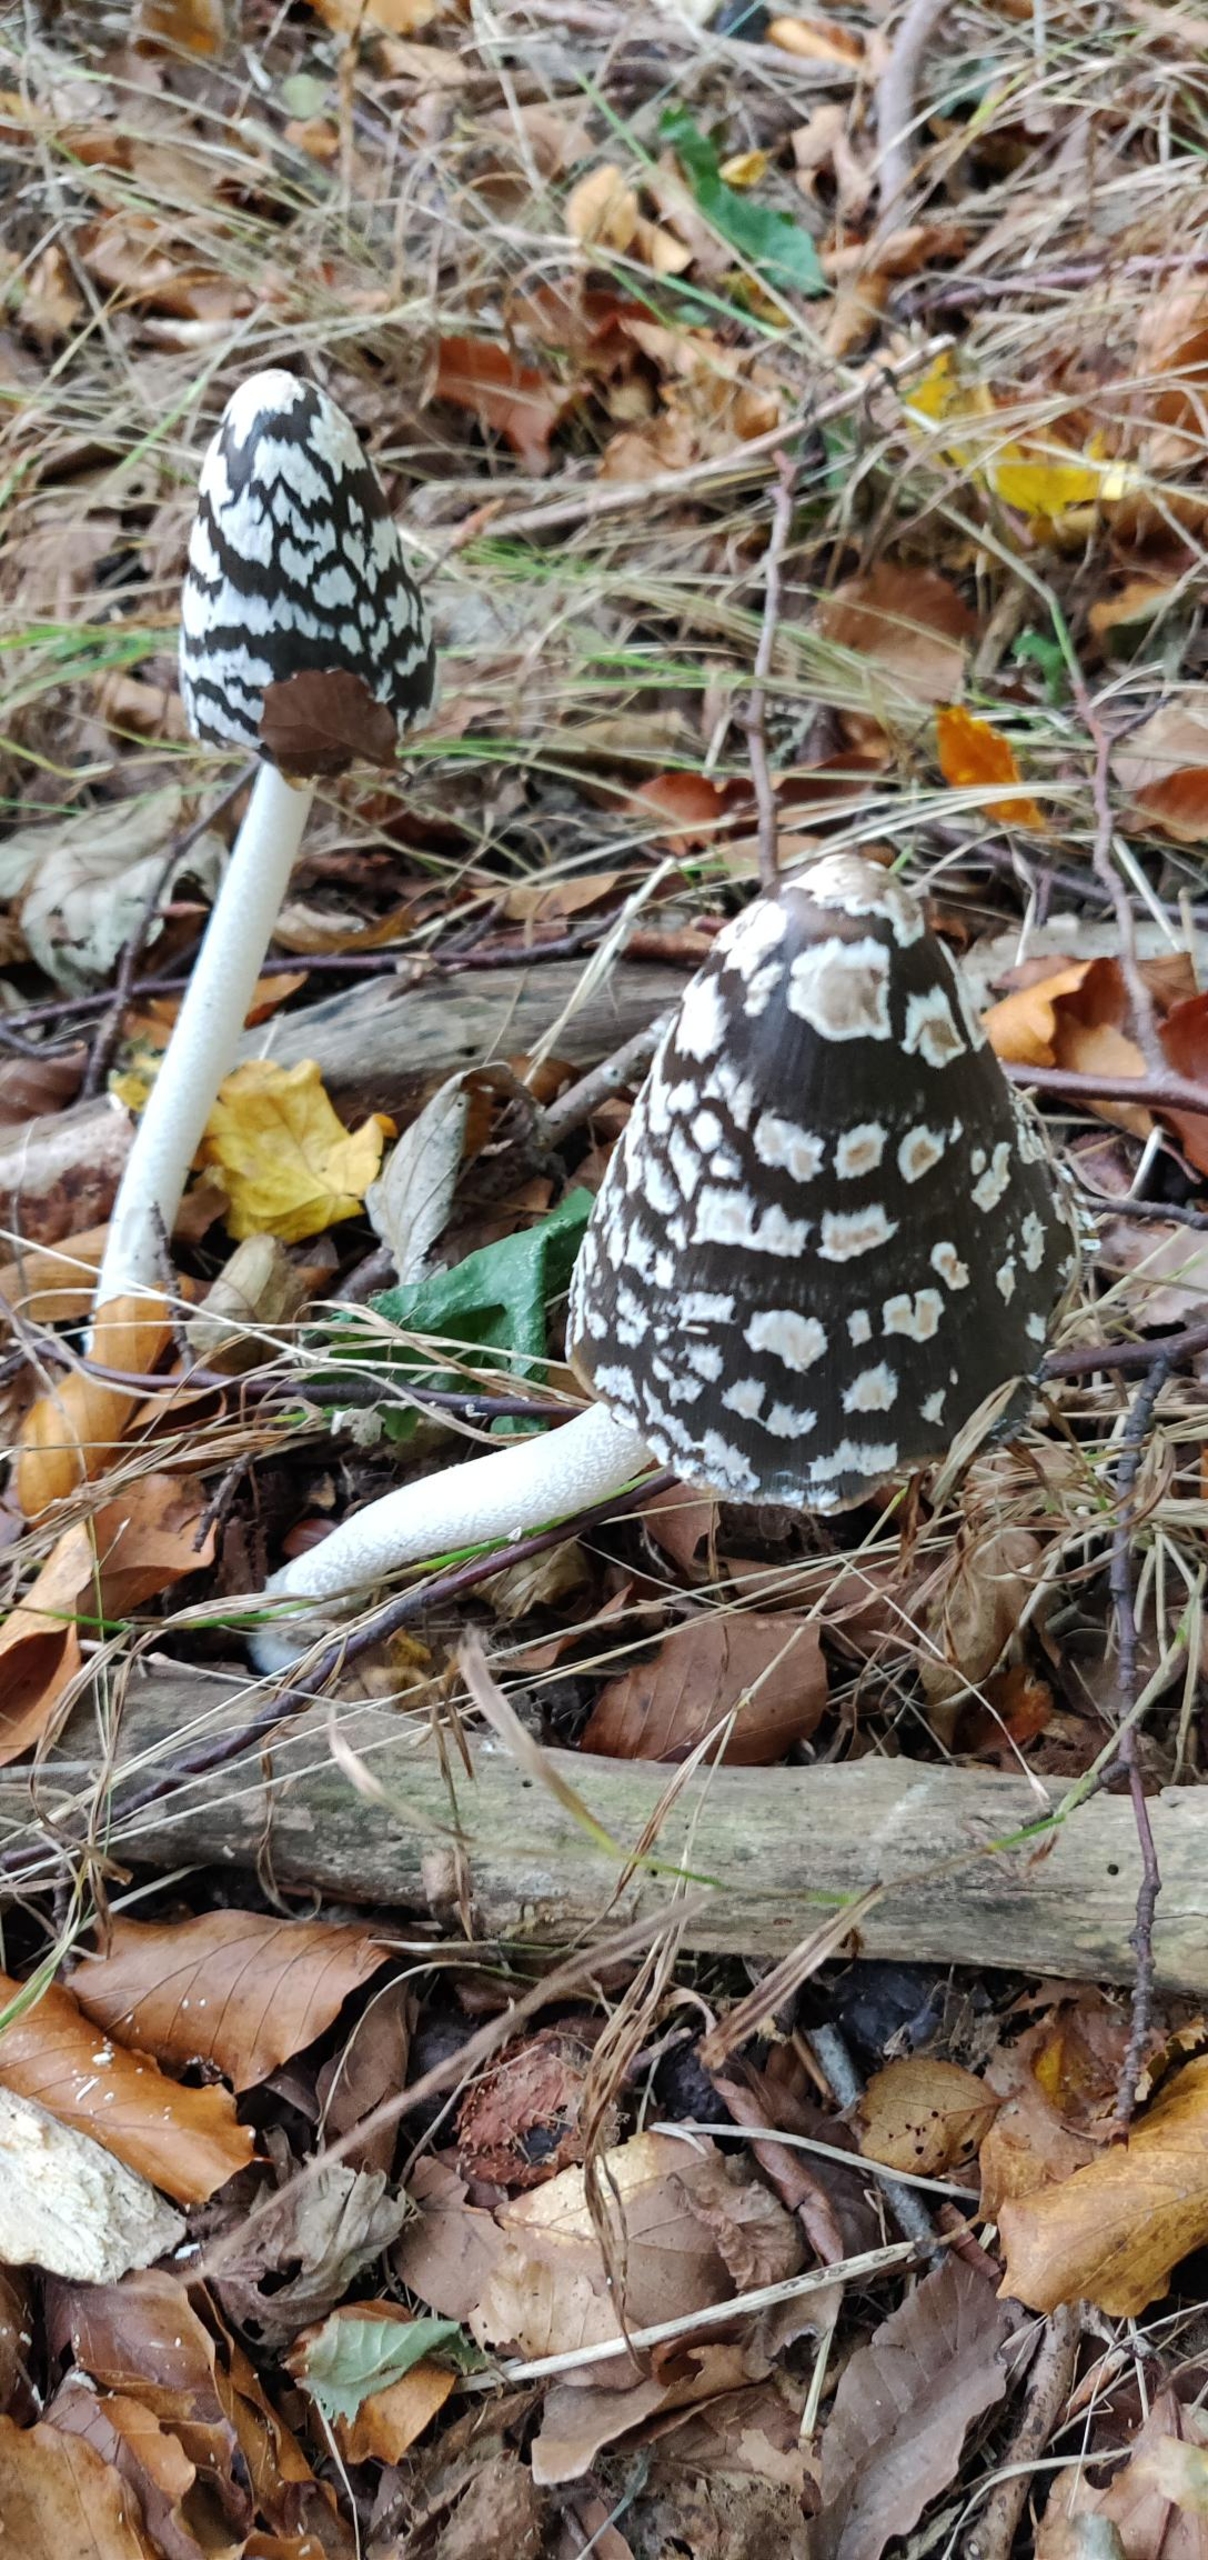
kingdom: Fungi
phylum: Basidiomycota
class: Agaricomycetes
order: Agaricales
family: Psathyrellaceae
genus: Coprinopsis
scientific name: Coprinopsis picacea
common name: Skade-blækhat
